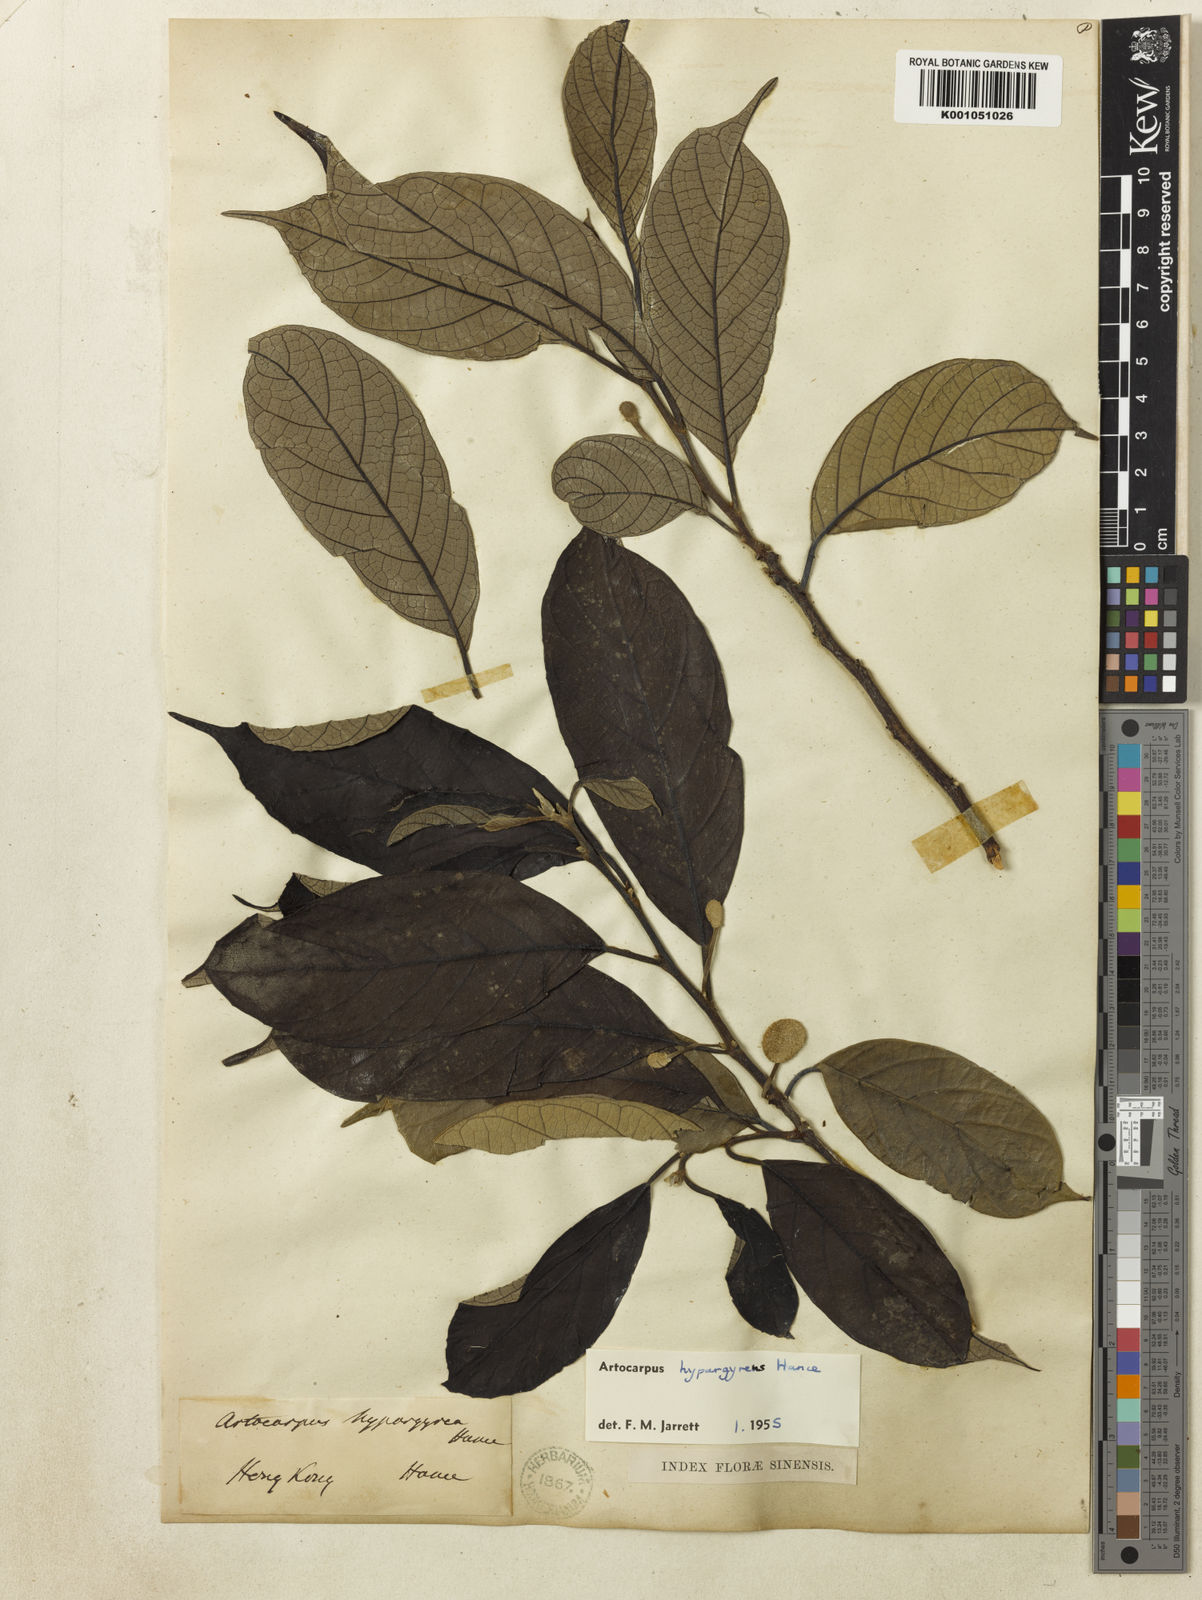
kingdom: Plantae
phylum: Tracheophyta
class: Magnoliopsida
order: Rosales
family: Moraceae
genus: Artocarpus
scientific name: Artocarpus hypargyreus
